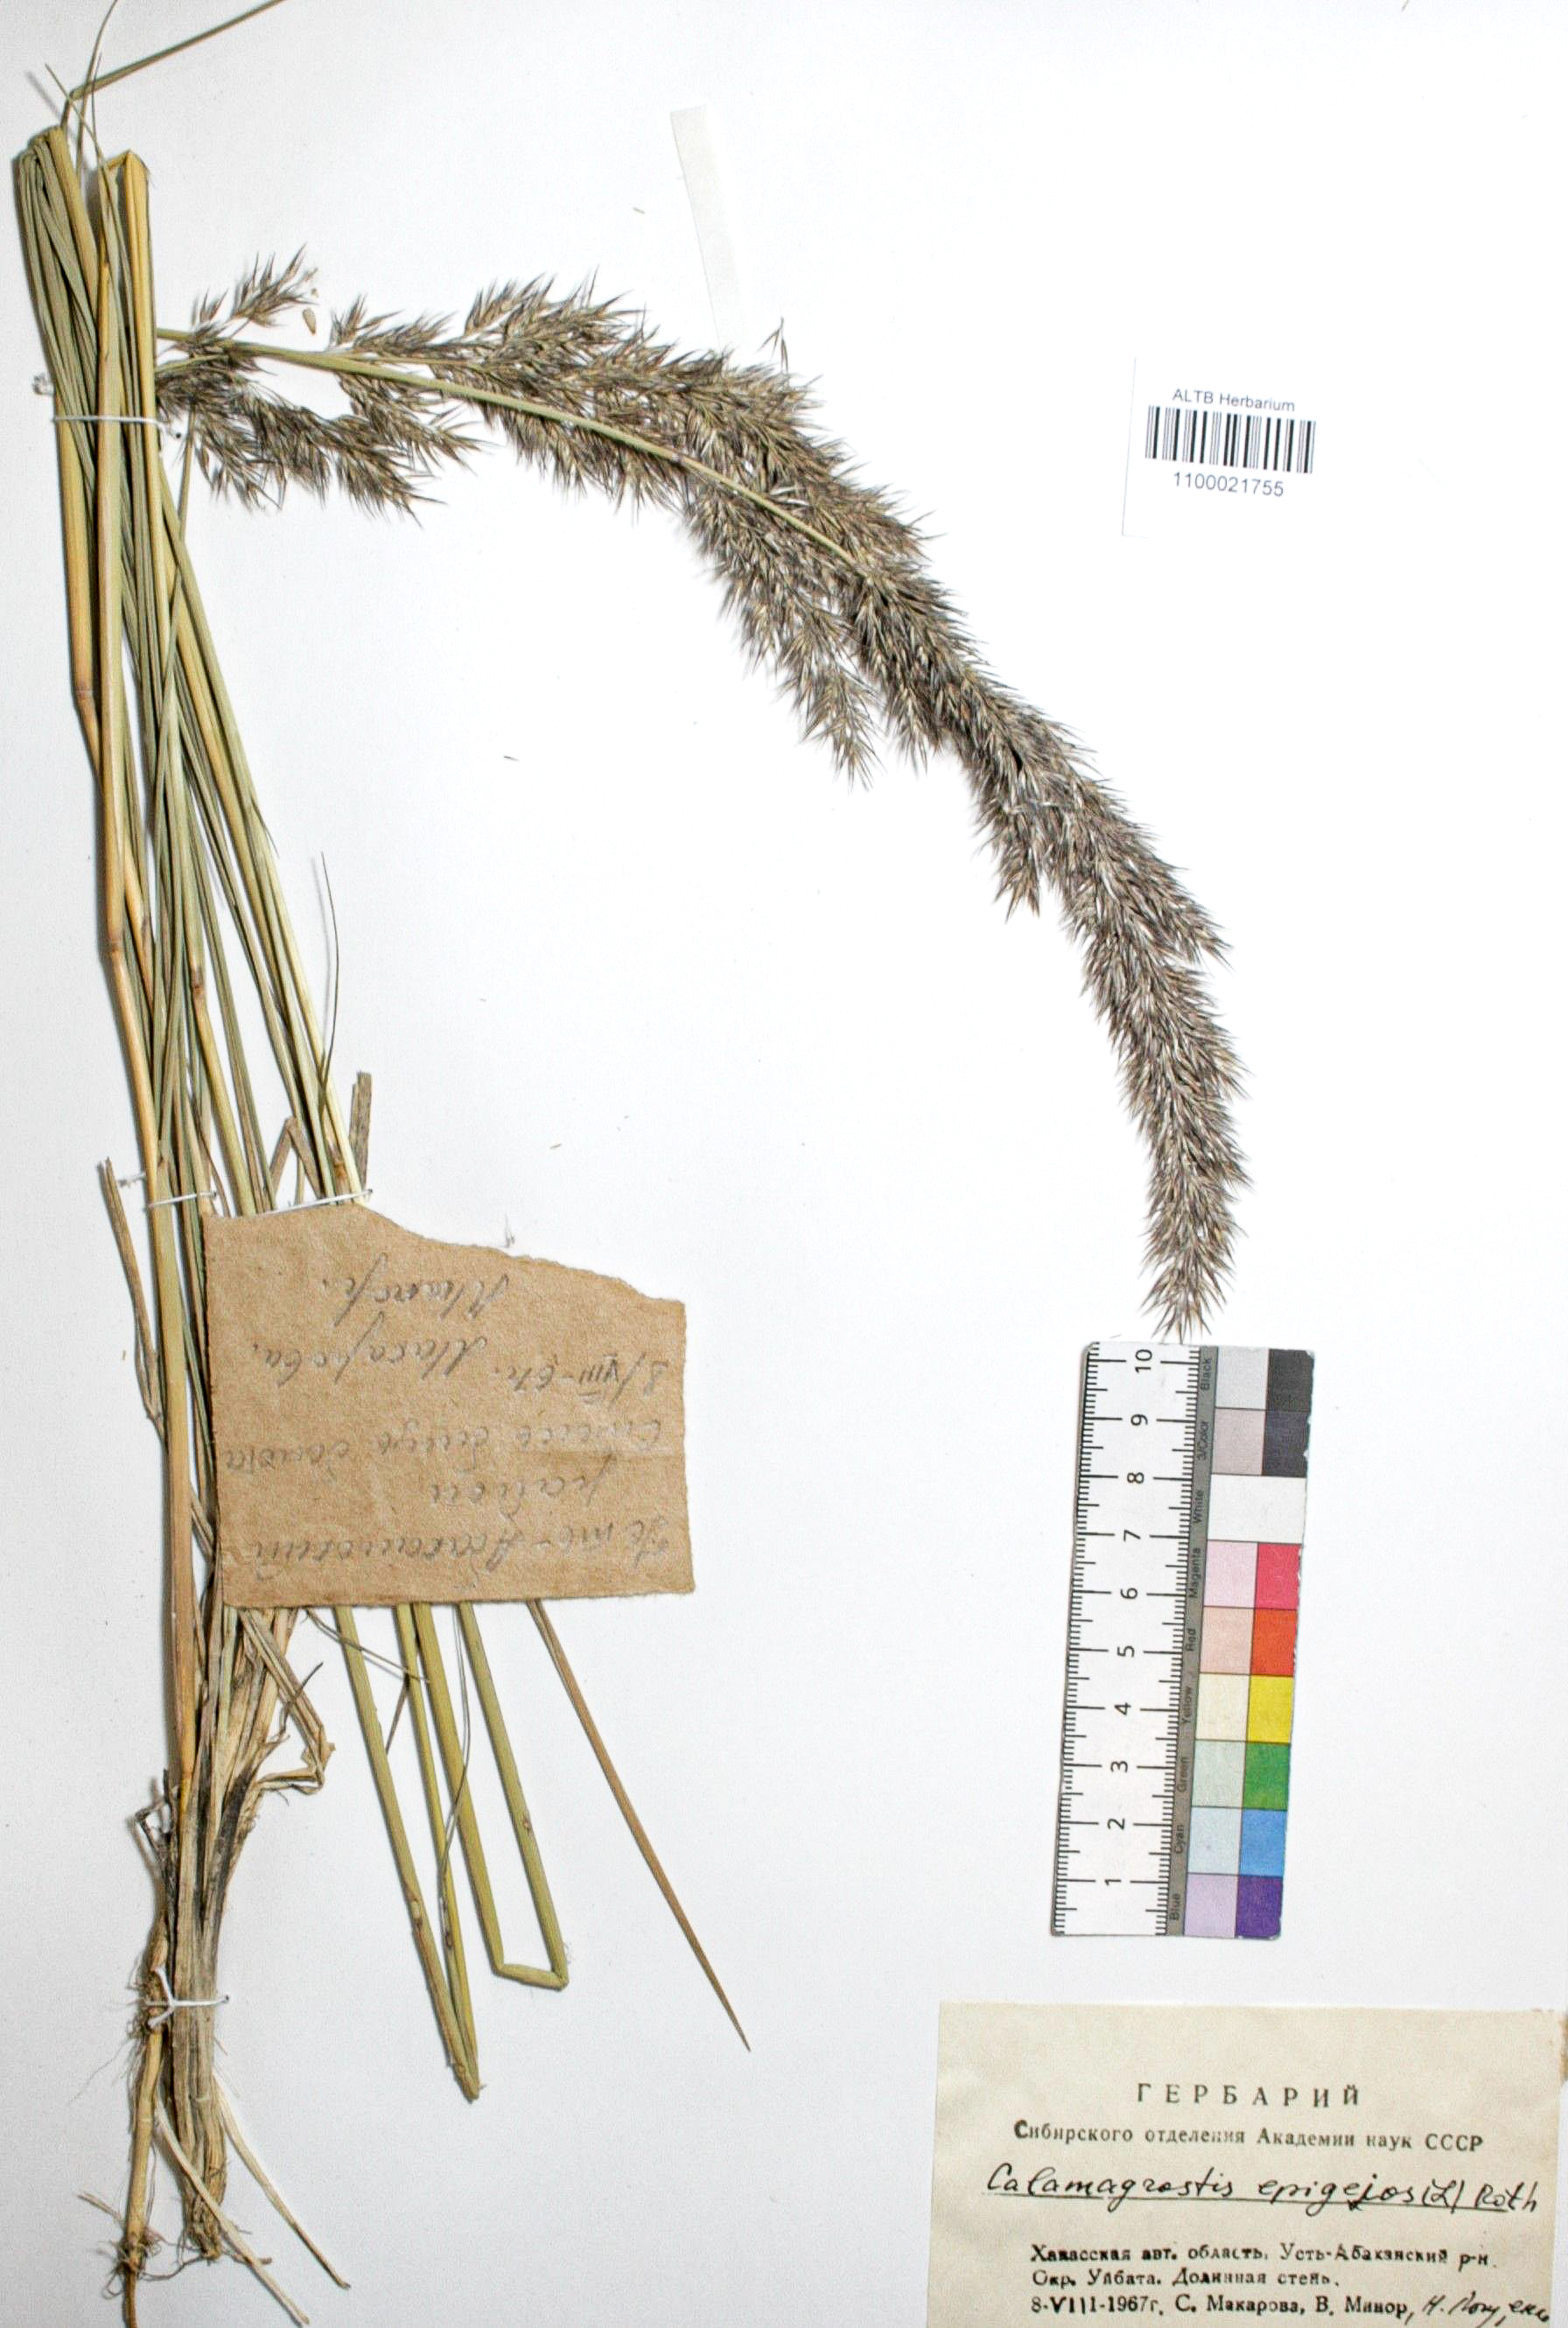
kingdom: Plantae
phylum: Tracheophyta
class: Liliopsida
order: Poales
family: Poaceae
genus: Calamagrostis
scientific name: Calamagrostis epigejos
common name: Wood small-reed
